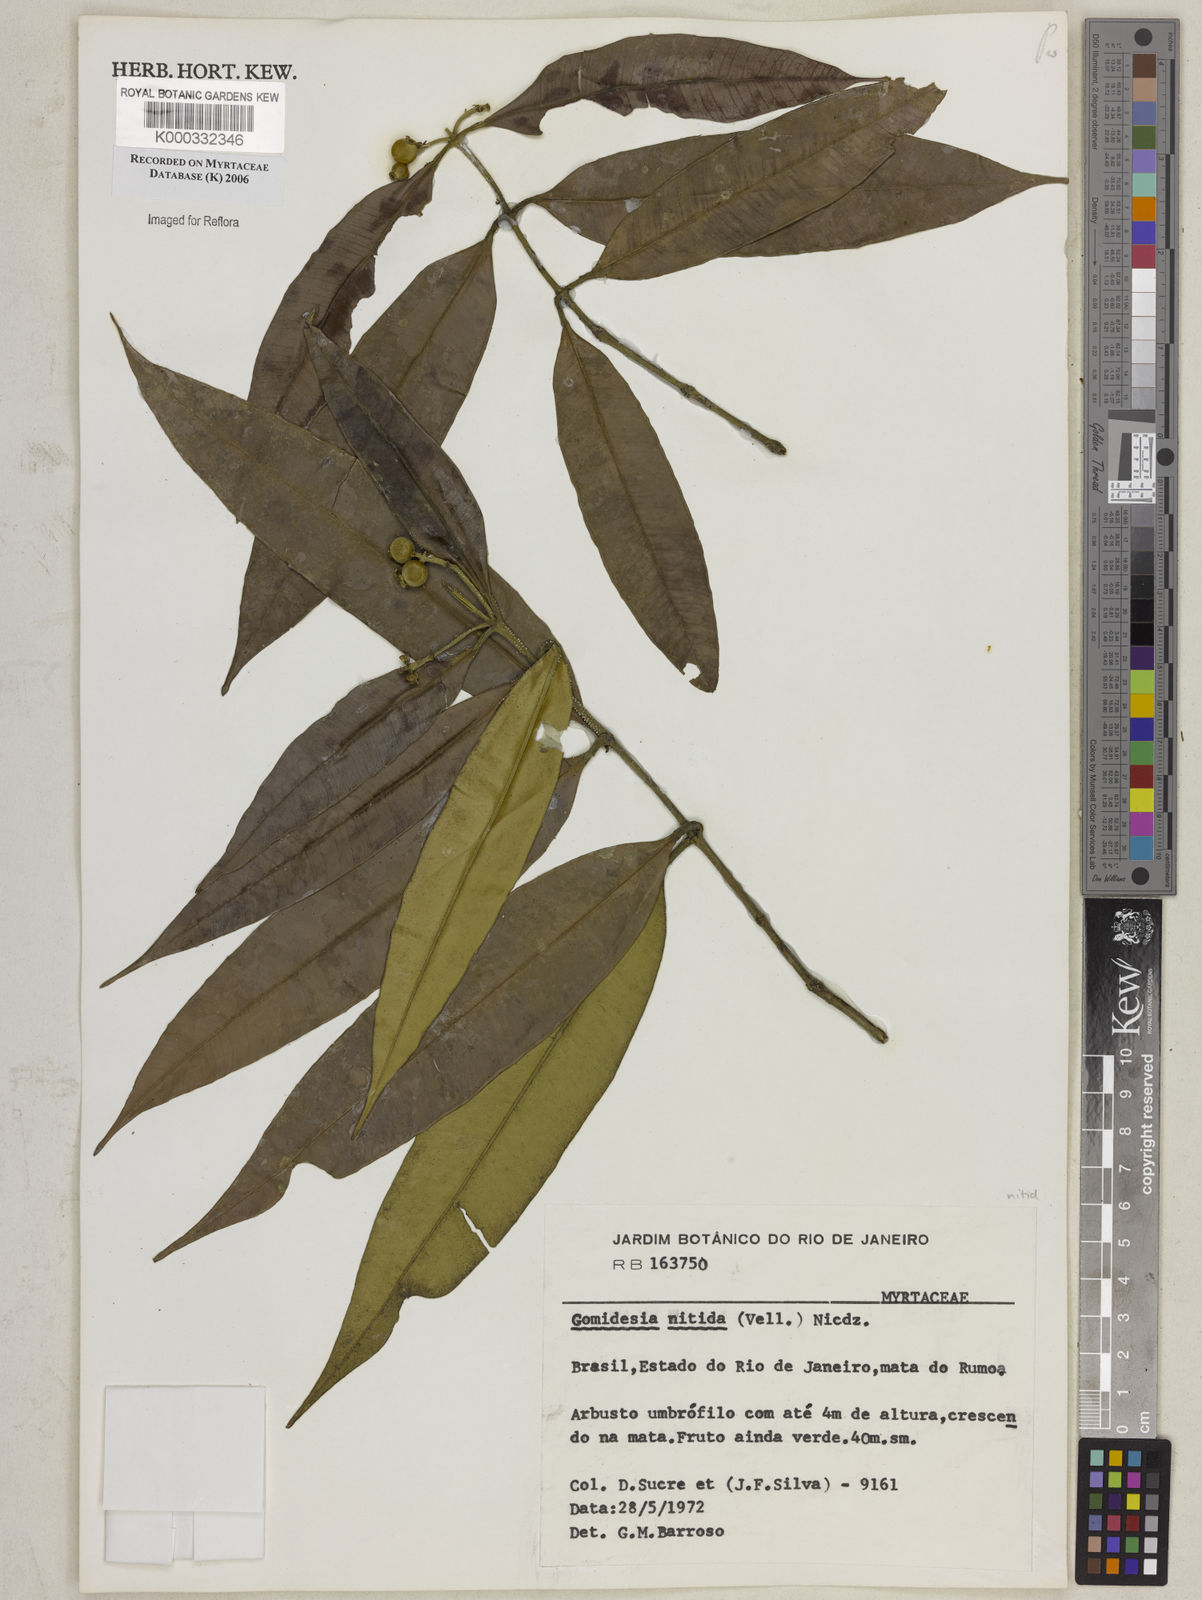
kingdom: Plantae
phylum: Tracheophyta
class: Magnoliopsida
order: Myrtales
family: Myrtaceae
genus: Myrcia
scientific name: Myrcia subsericea
